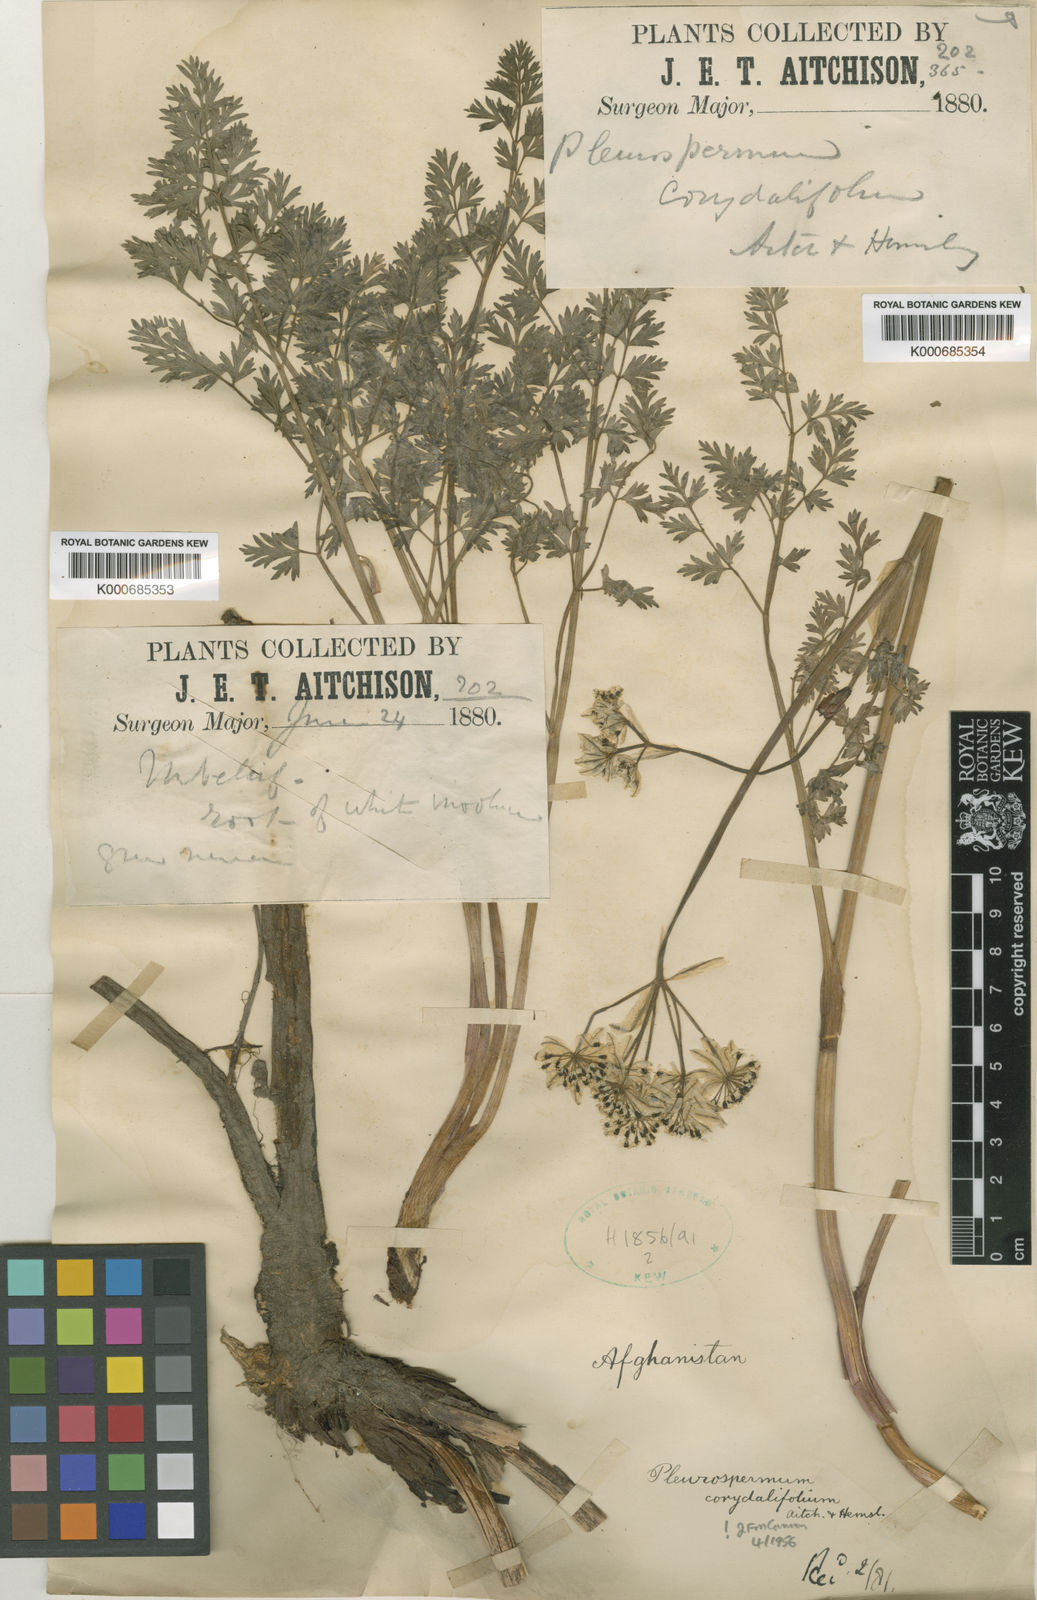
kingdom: Plantae
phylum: Tracheophyta
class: Magnoliopsida
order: Apiales
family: Apiaceae
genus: Hymenidium
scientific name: Hymenidium corydalifolium
